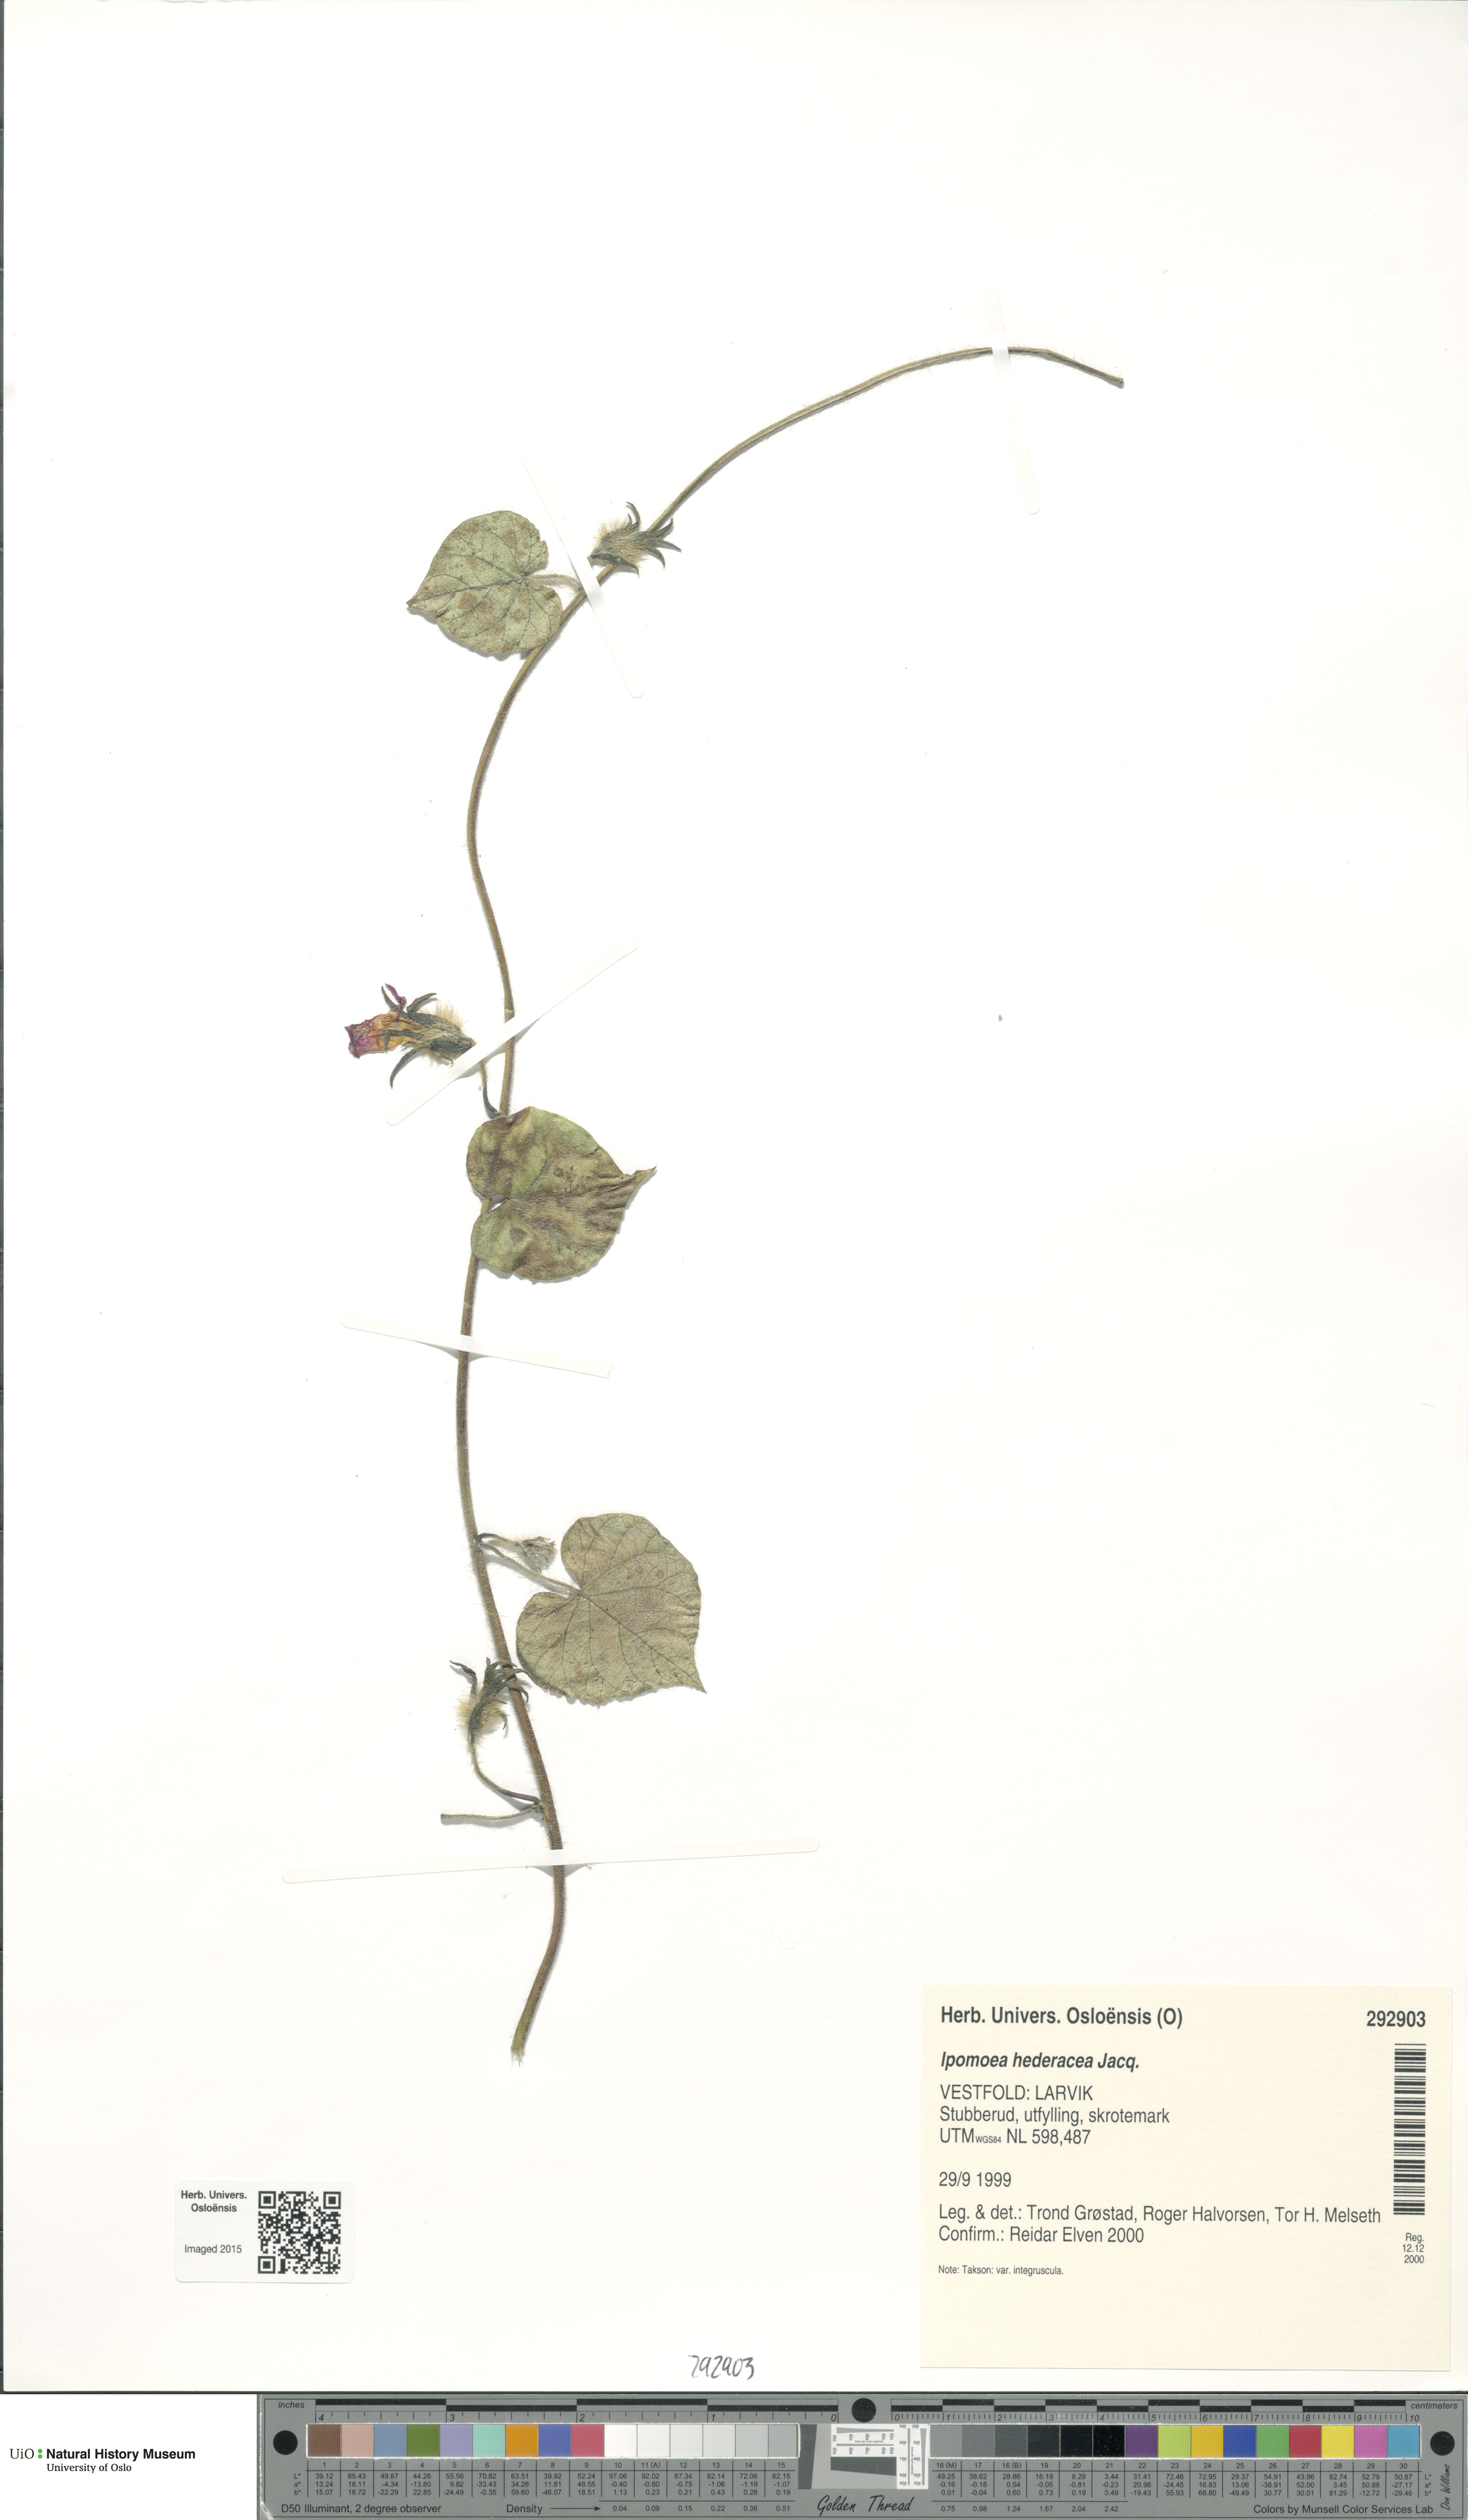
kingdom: Plantae
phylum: Tracheophyta
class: Magnoliopsida
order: Solanales
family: Convolvulaceae
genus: Ipomoea
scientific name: Ipomoea nil
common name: Japanese morning-glory
